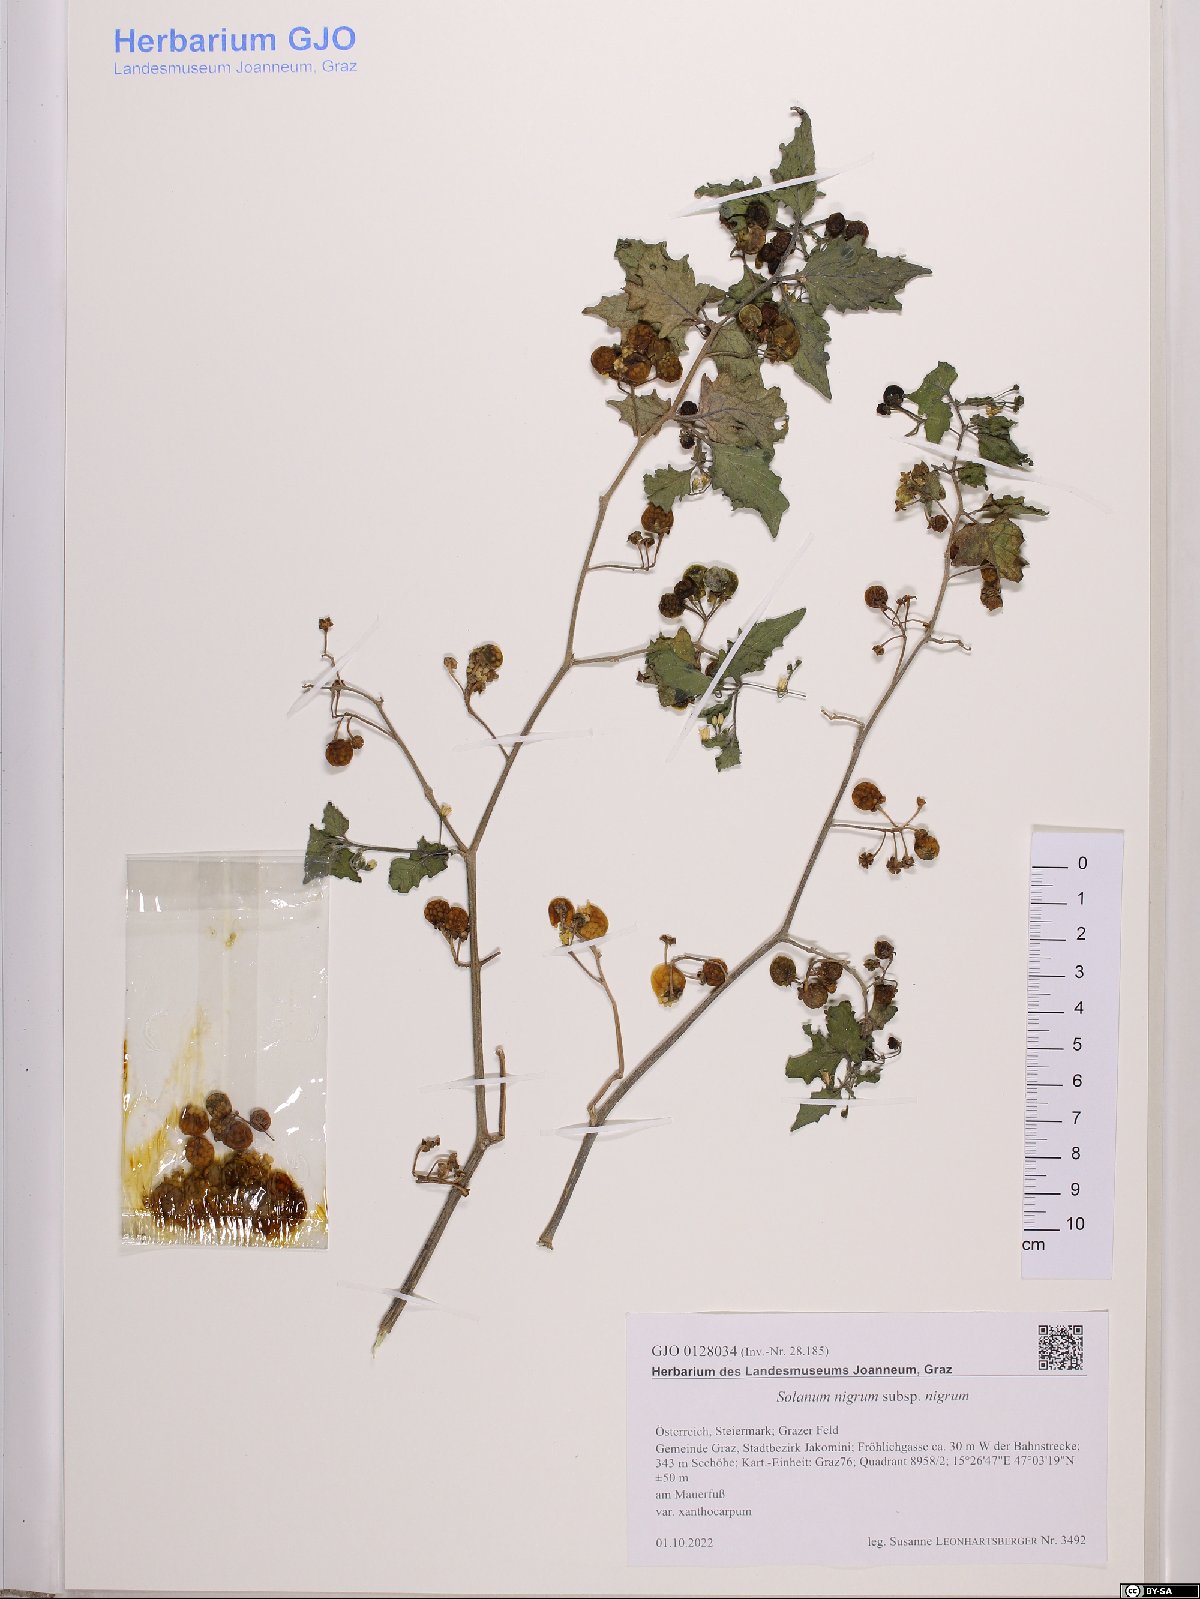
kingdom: Plantae
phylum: Tracheophyta
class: Magnoliopsida
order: Solanales
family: Solanaceae
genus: Solanum
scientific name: Solanum nigrum
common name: Black nightshade
